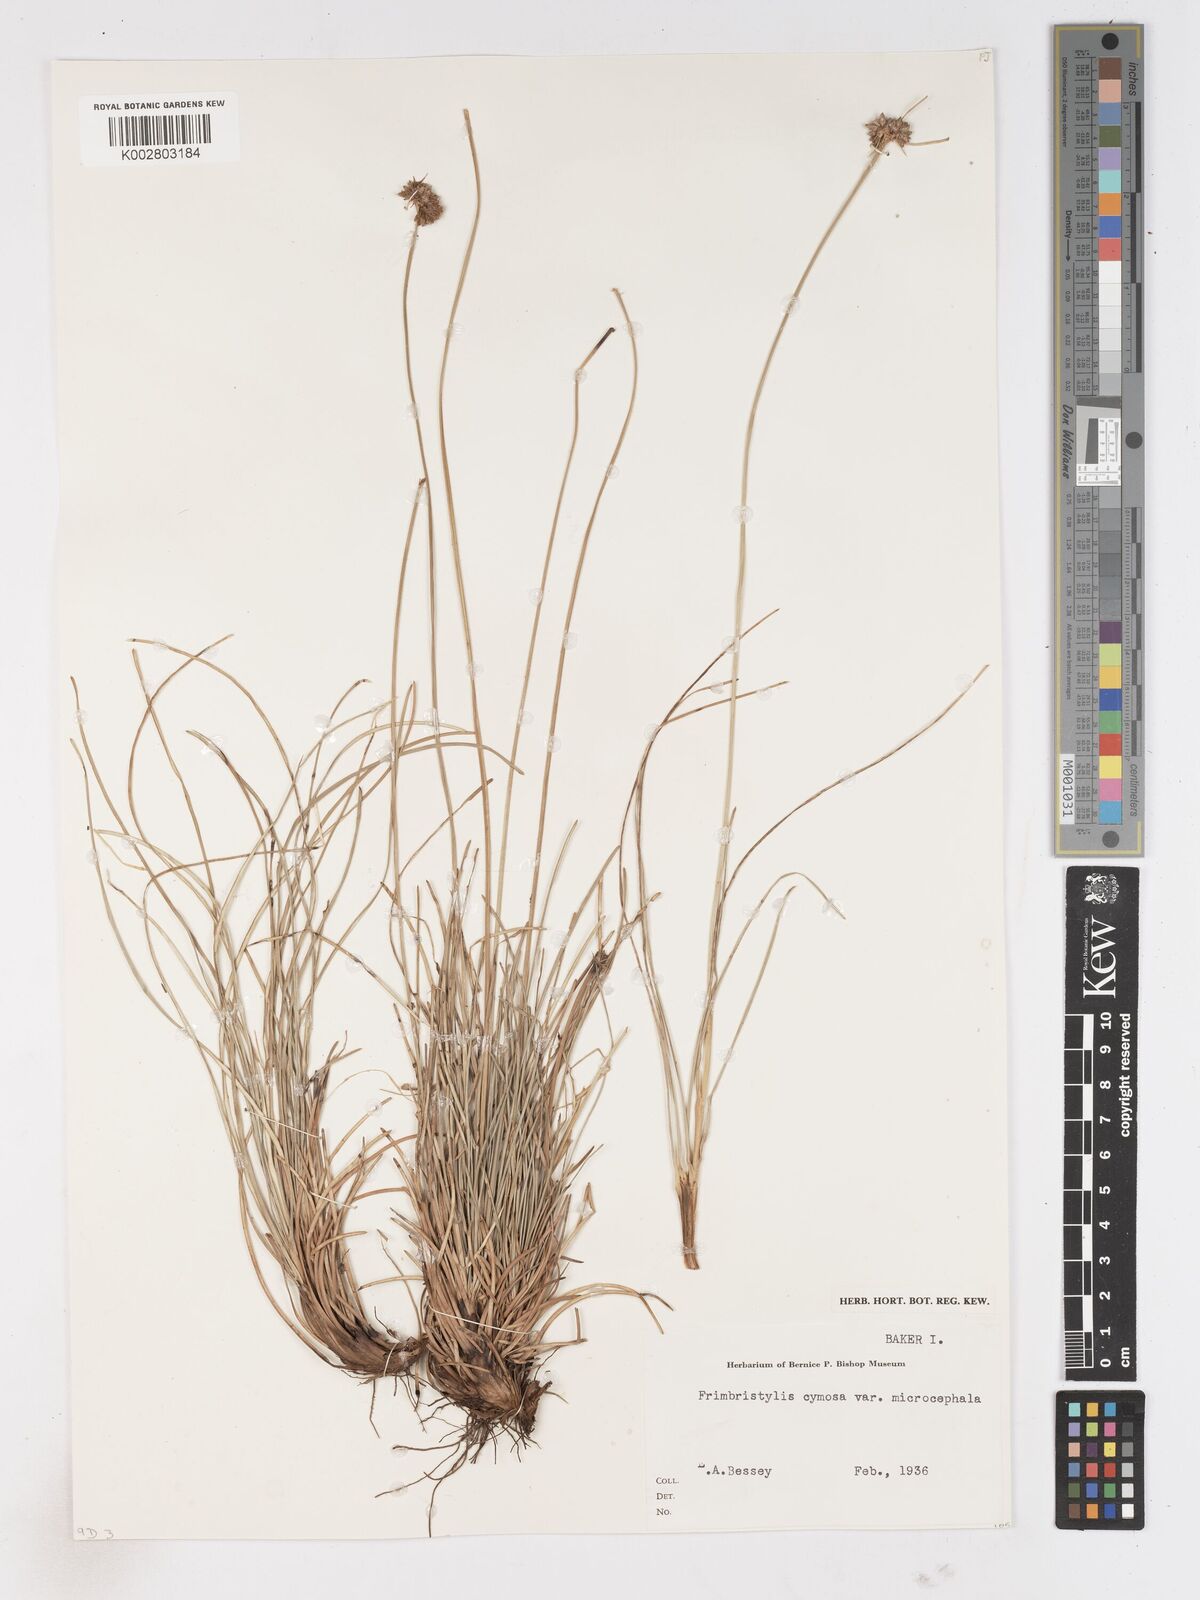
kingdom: Plantae
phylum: Tracheophyta
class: Liliopsida
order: Poales
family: Cyperaceae
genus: Fimbristylis
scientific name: Fimbristylis cymosa
